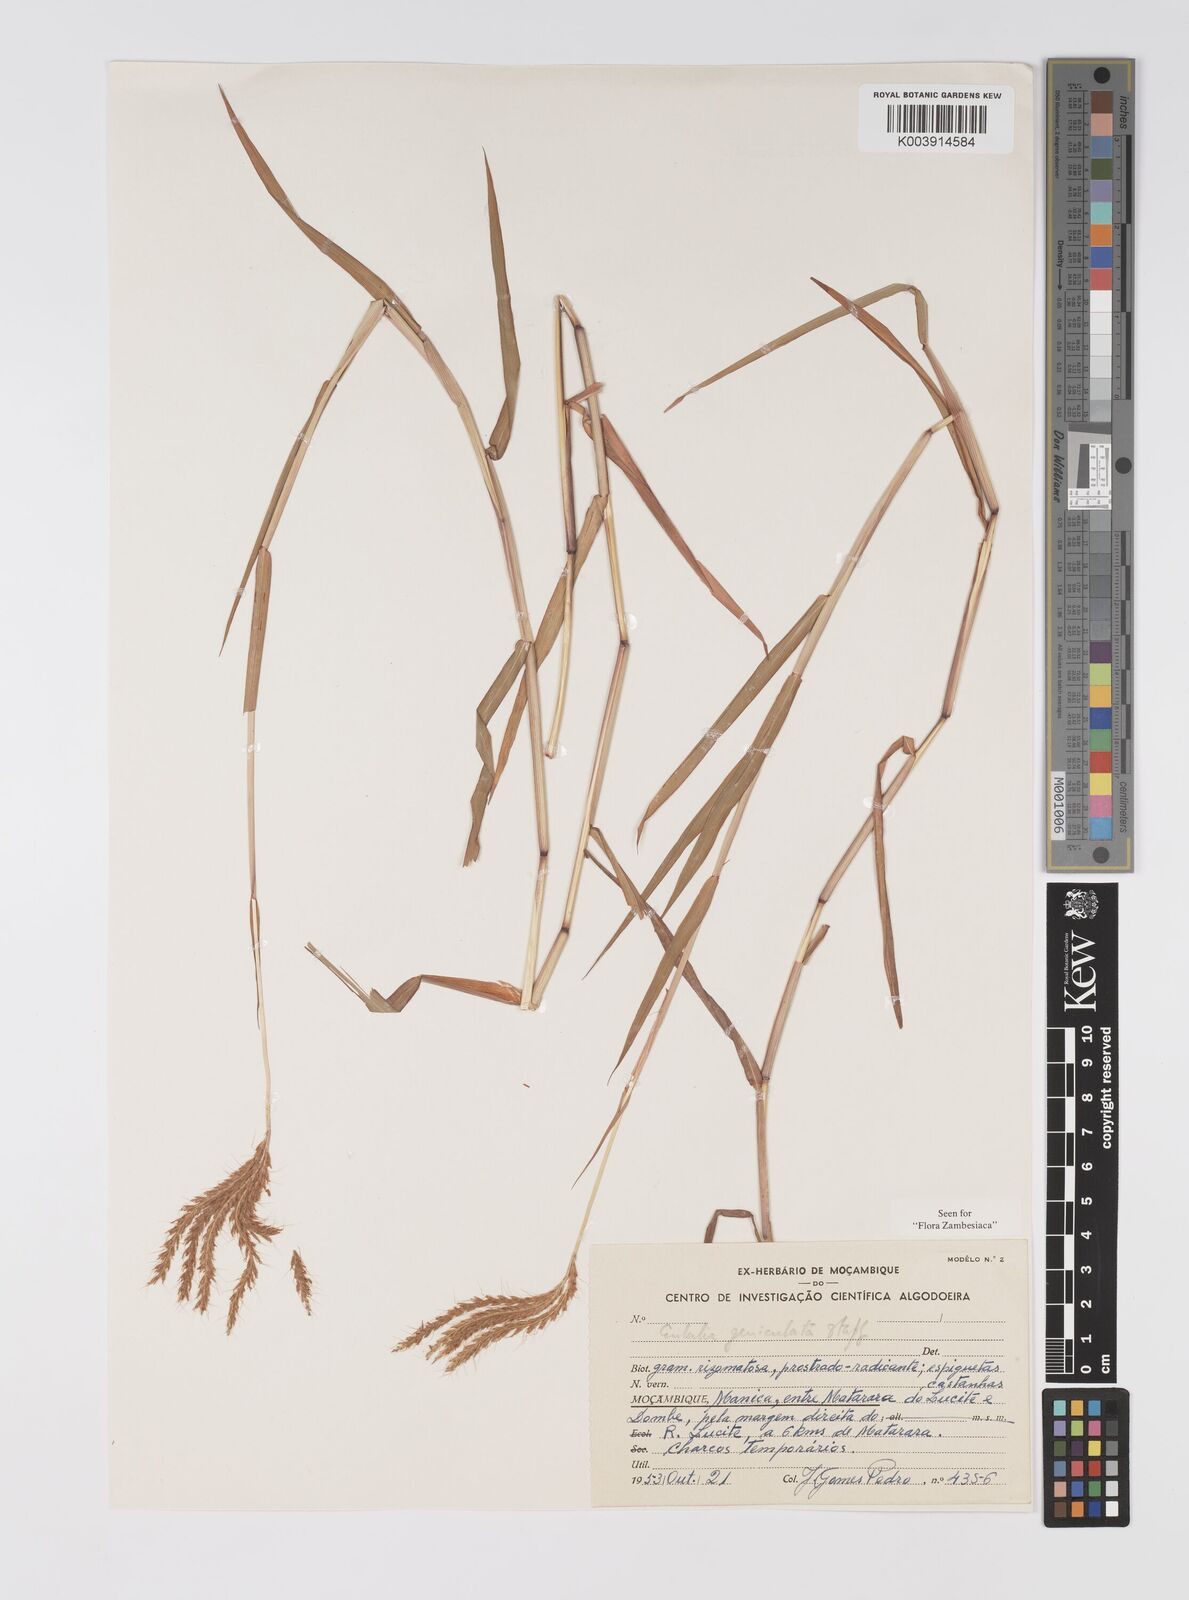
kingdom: Plantae
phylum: Tracheophyta
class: Liliopsida
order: Poales
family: Poaceae
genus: Eulalia
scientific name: Eulalia aurea
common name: Silky browntop
